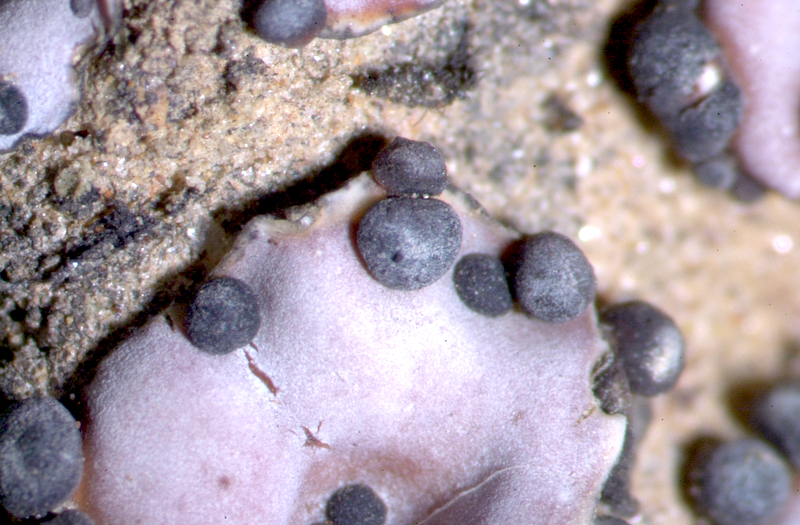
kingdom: Fungi
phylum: Ascomycota
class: Lecanoromycetes
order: Lecanorales
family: Psoraceae
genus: Psora
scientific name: Psora crenata
